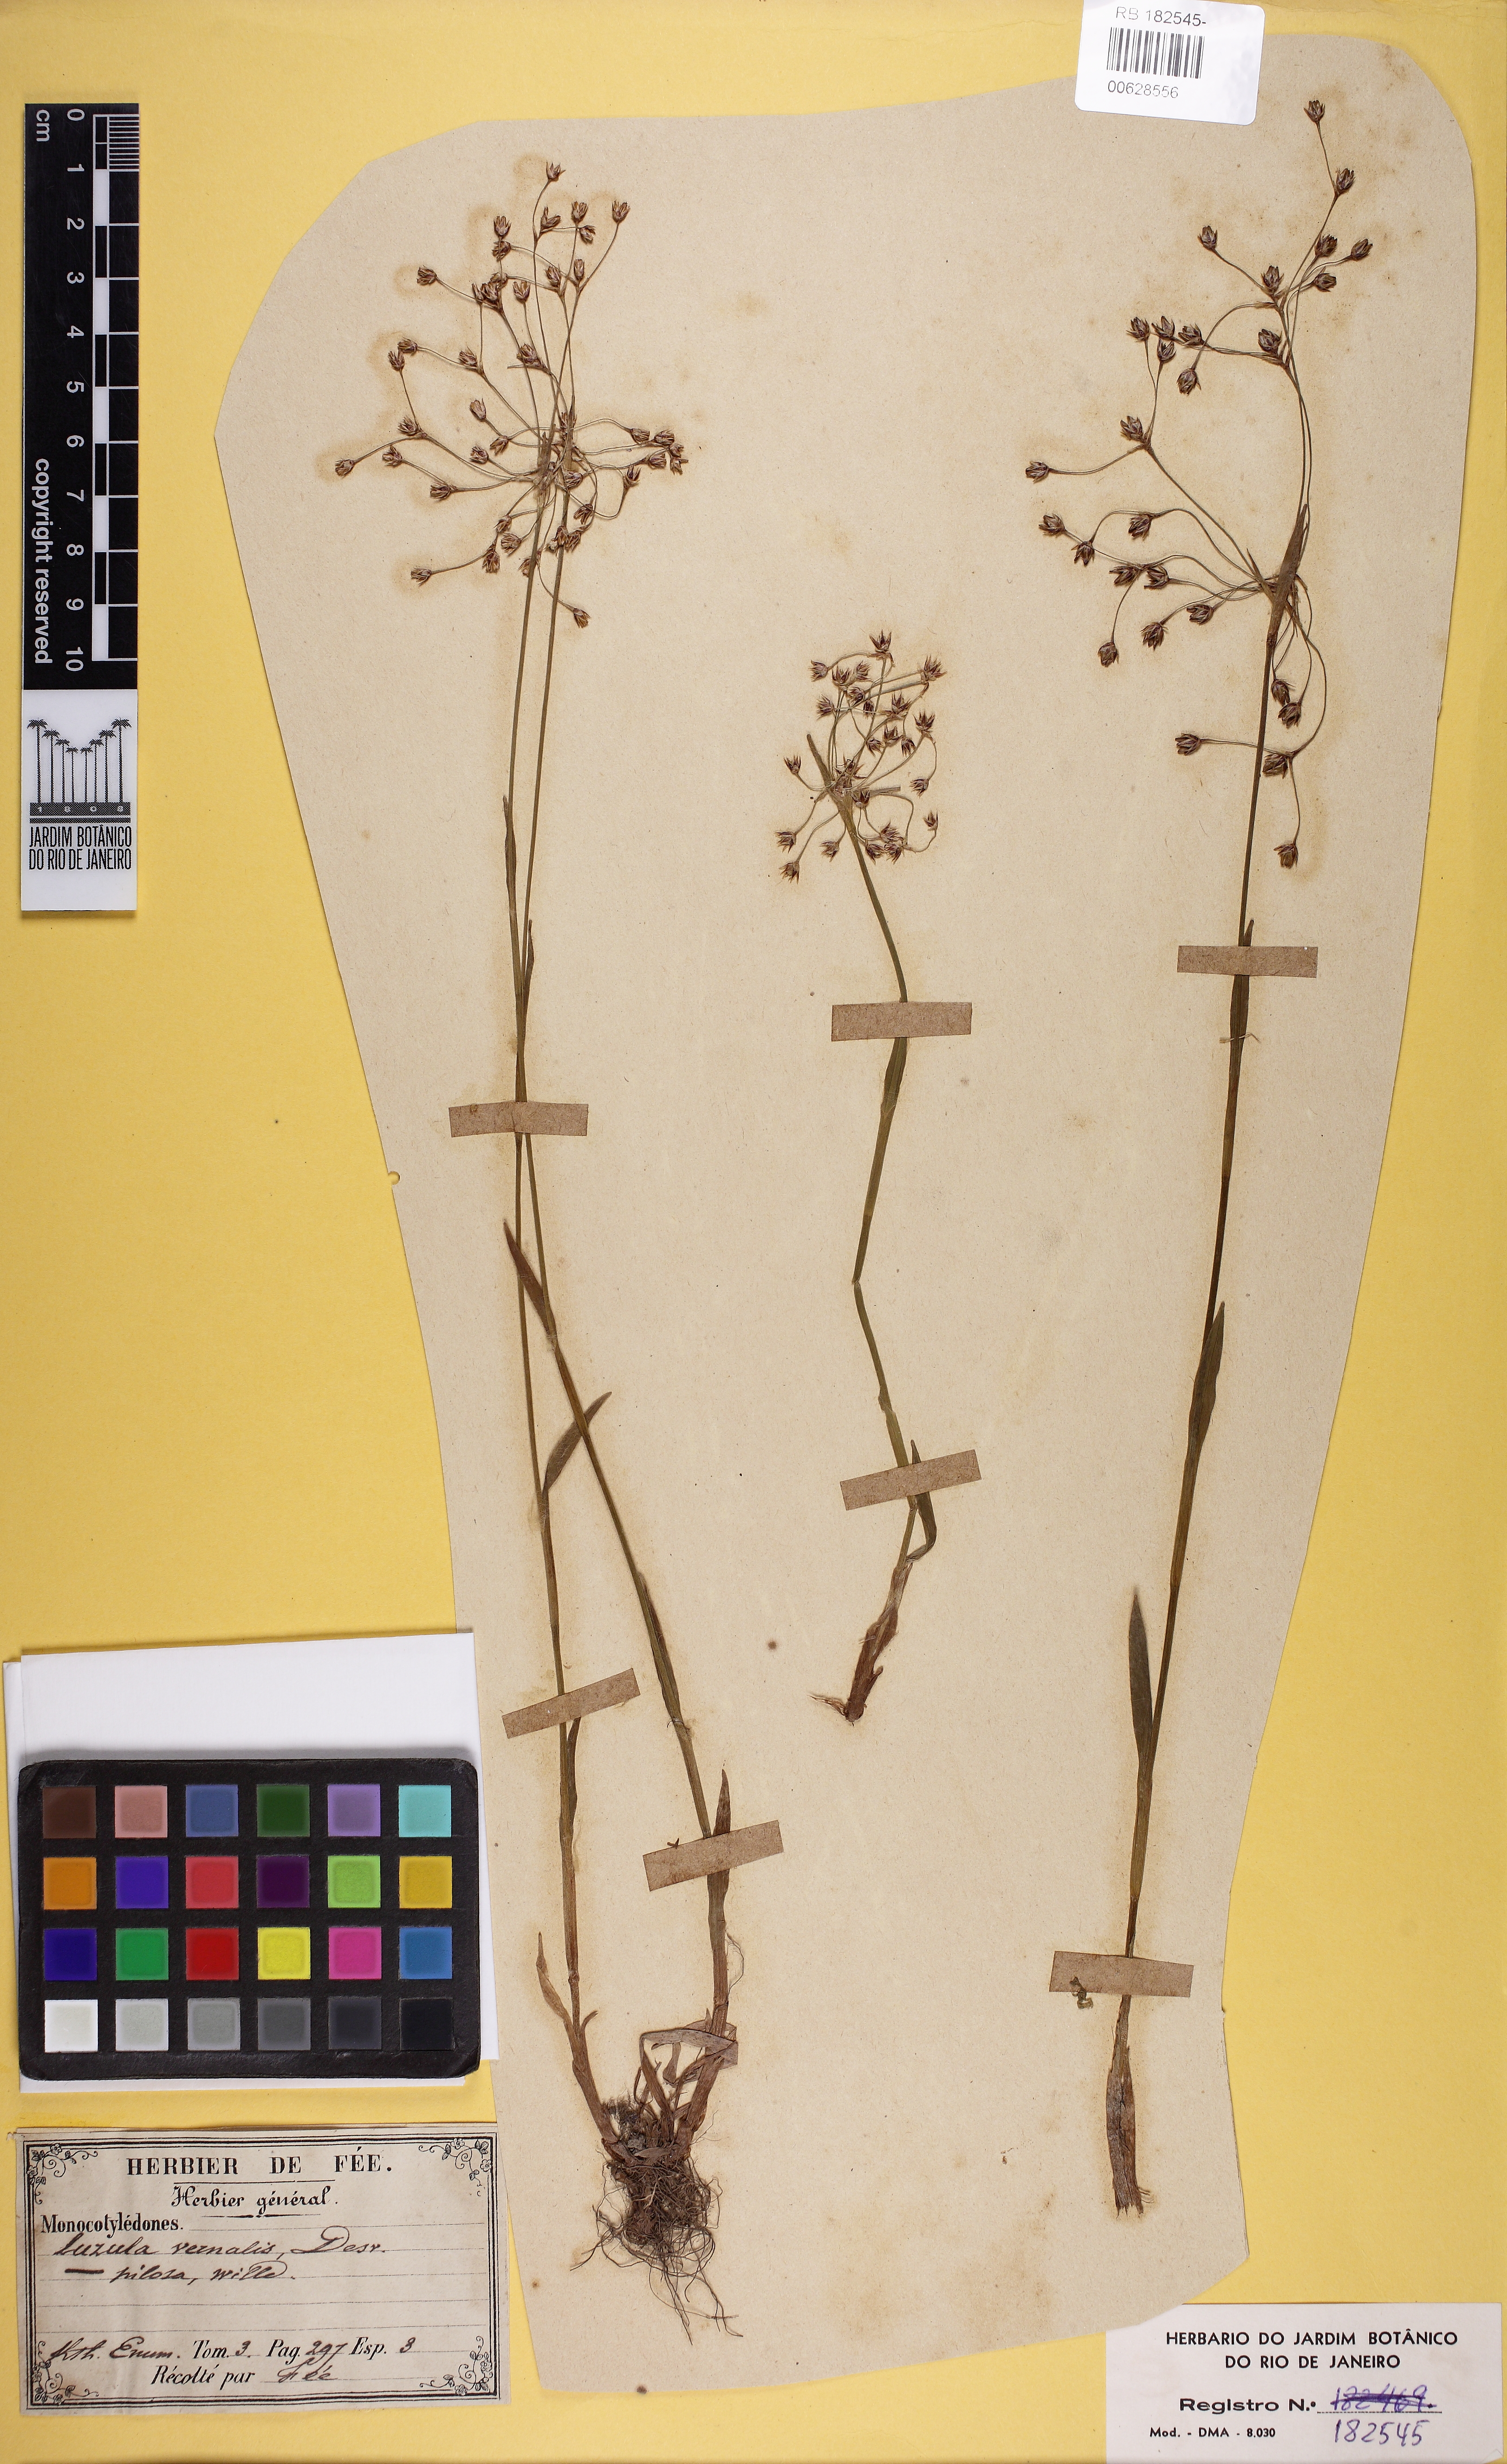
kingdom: Plantae
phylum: Tracheophyta
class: Liliopsida
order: Poales
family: Juncaceae
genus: Luzula
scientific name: Luzula pilosa
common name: Hairy wood-rush
